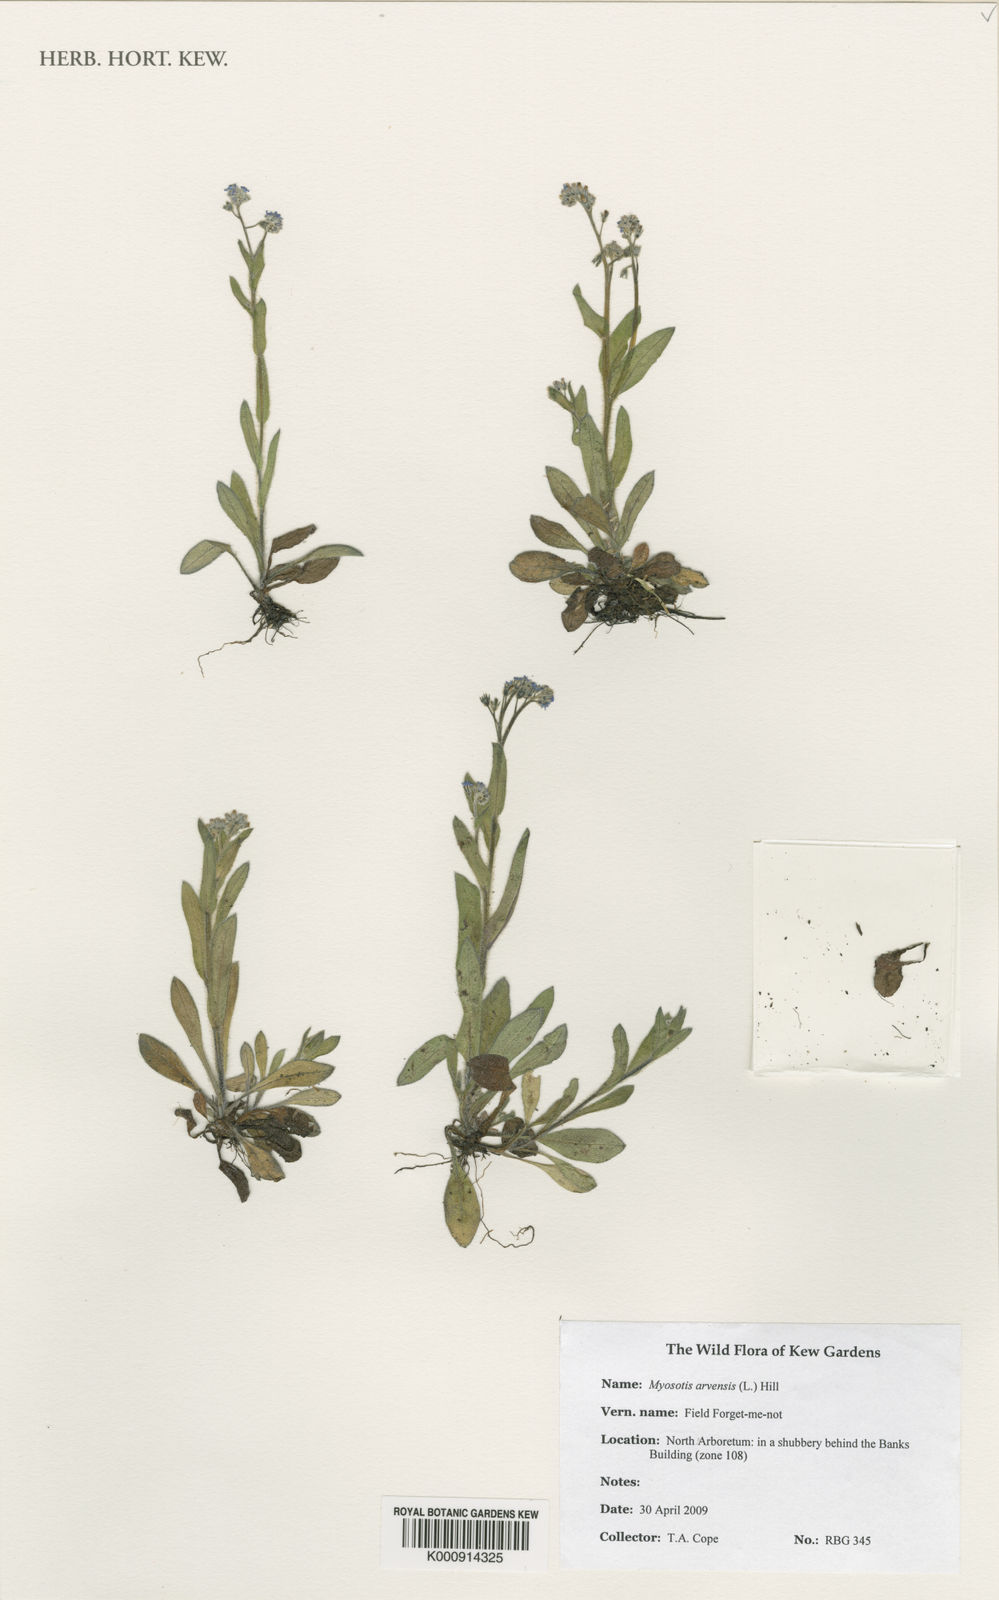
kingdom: Plantae
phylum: Tracheophyta
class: Magnoliopsida
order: Boraginales
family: Boraginaceae
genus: Myosotis
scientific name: Myosotis arvensis
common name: Field forget-me-not
